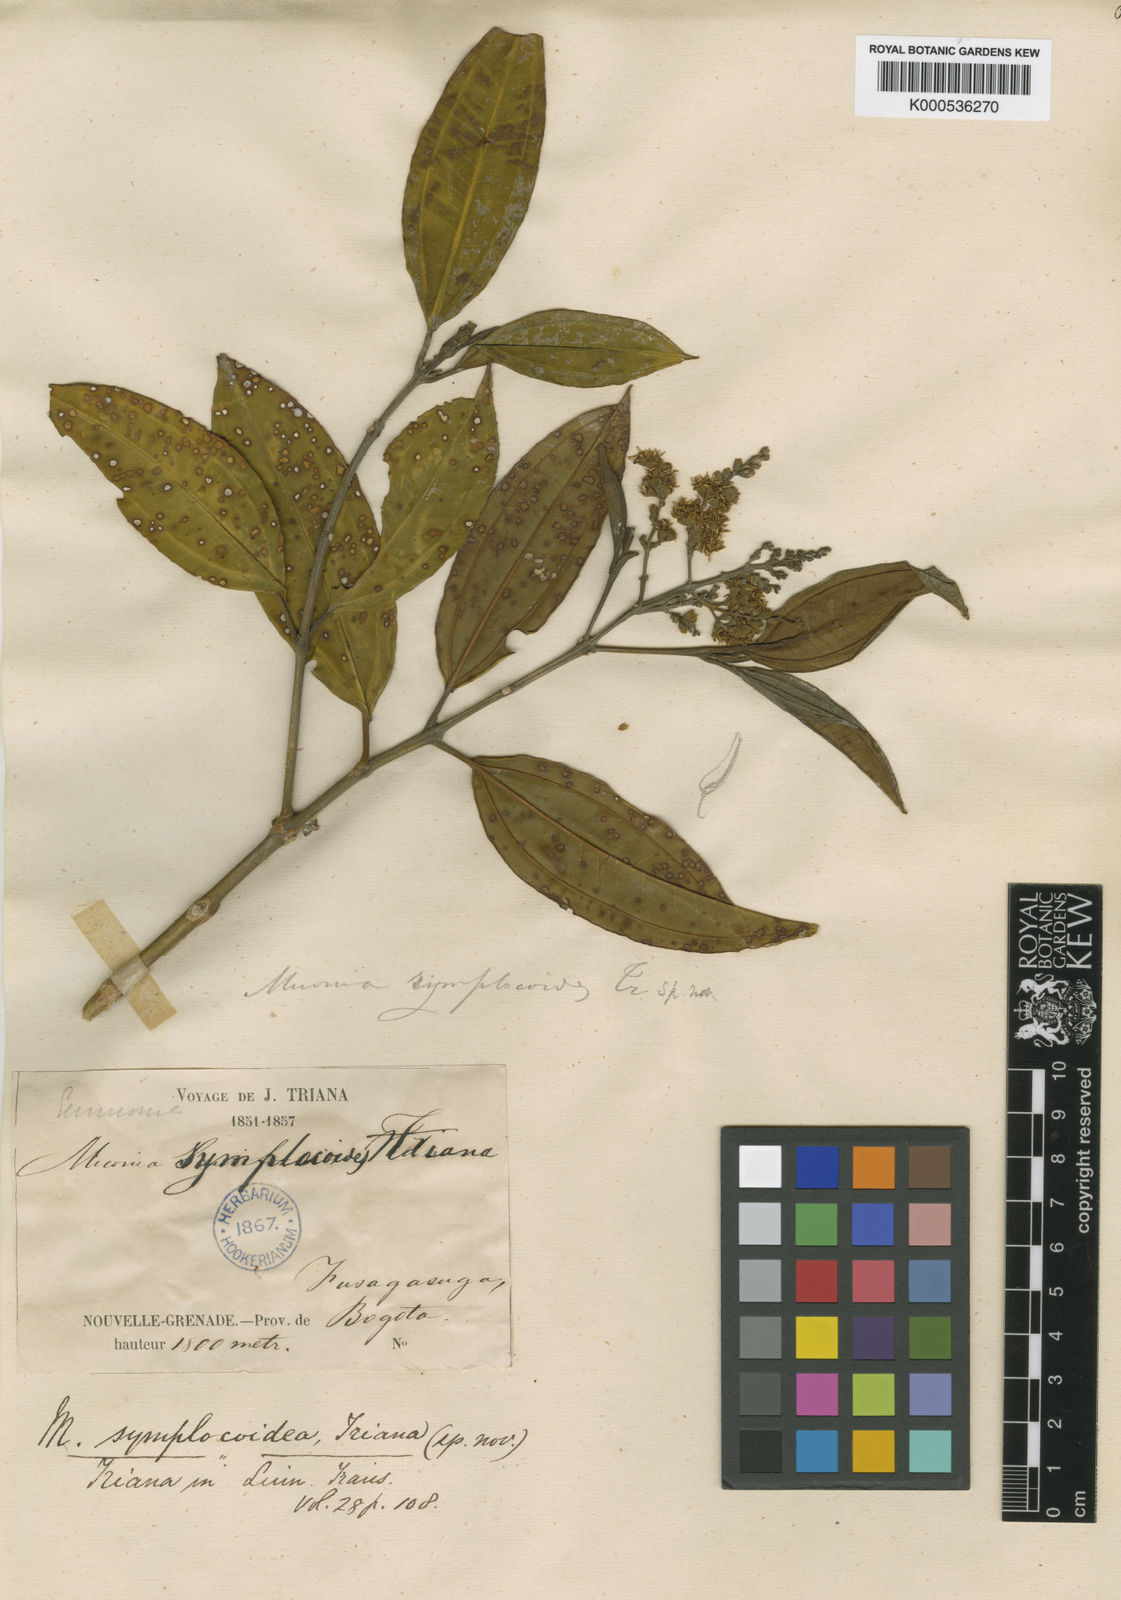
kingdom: Plantae
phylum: Tracheophyta
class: Magnoliopsida
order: Myrtales
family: Melastomataceae
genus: Miconia
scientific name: Miconia symplocoidea
